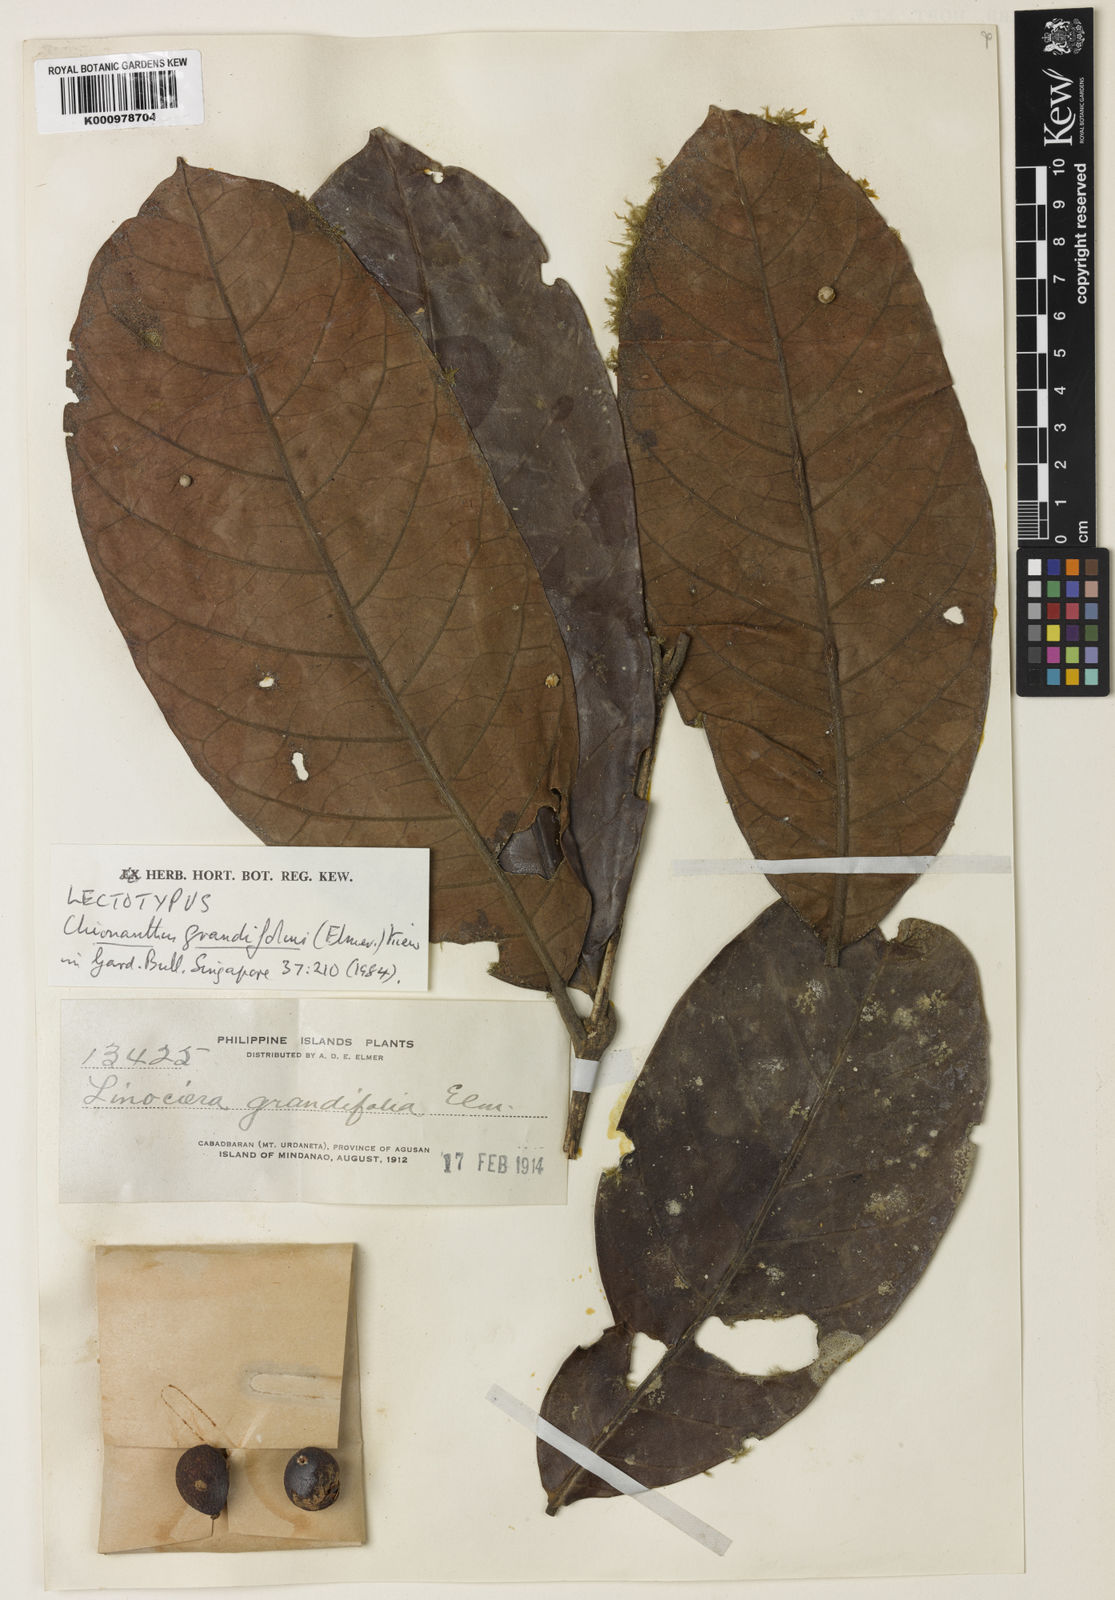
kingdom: Plantae
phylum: Tracheophyta
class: Magnoliopsida
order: Lamiales
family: Oleaceae
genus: Chionanthus
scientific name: Chionanthus grandifolius
